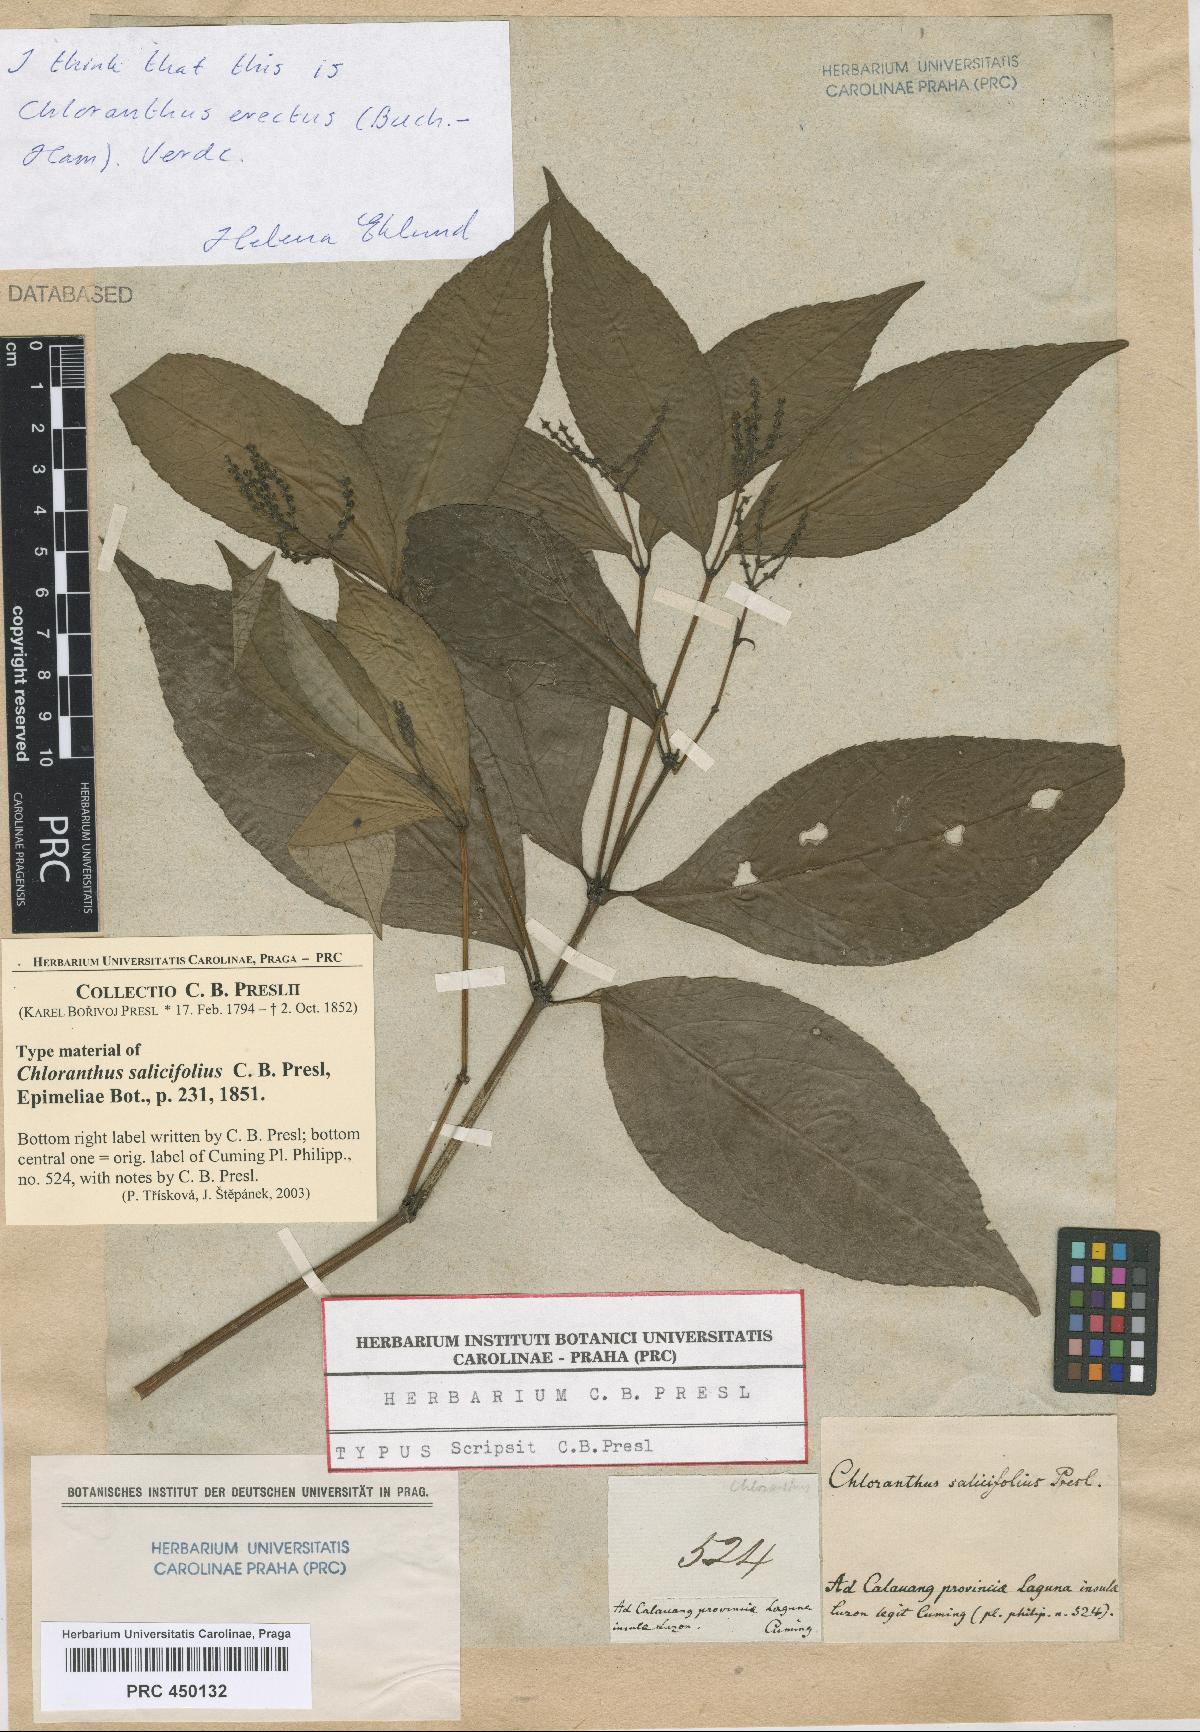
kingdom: Plantae
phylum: Tracheophyta
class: Magnoliopsida
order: Chloranthales
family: Chloranthaceae
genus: Chloranthus
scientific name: Chloranthus elatior
